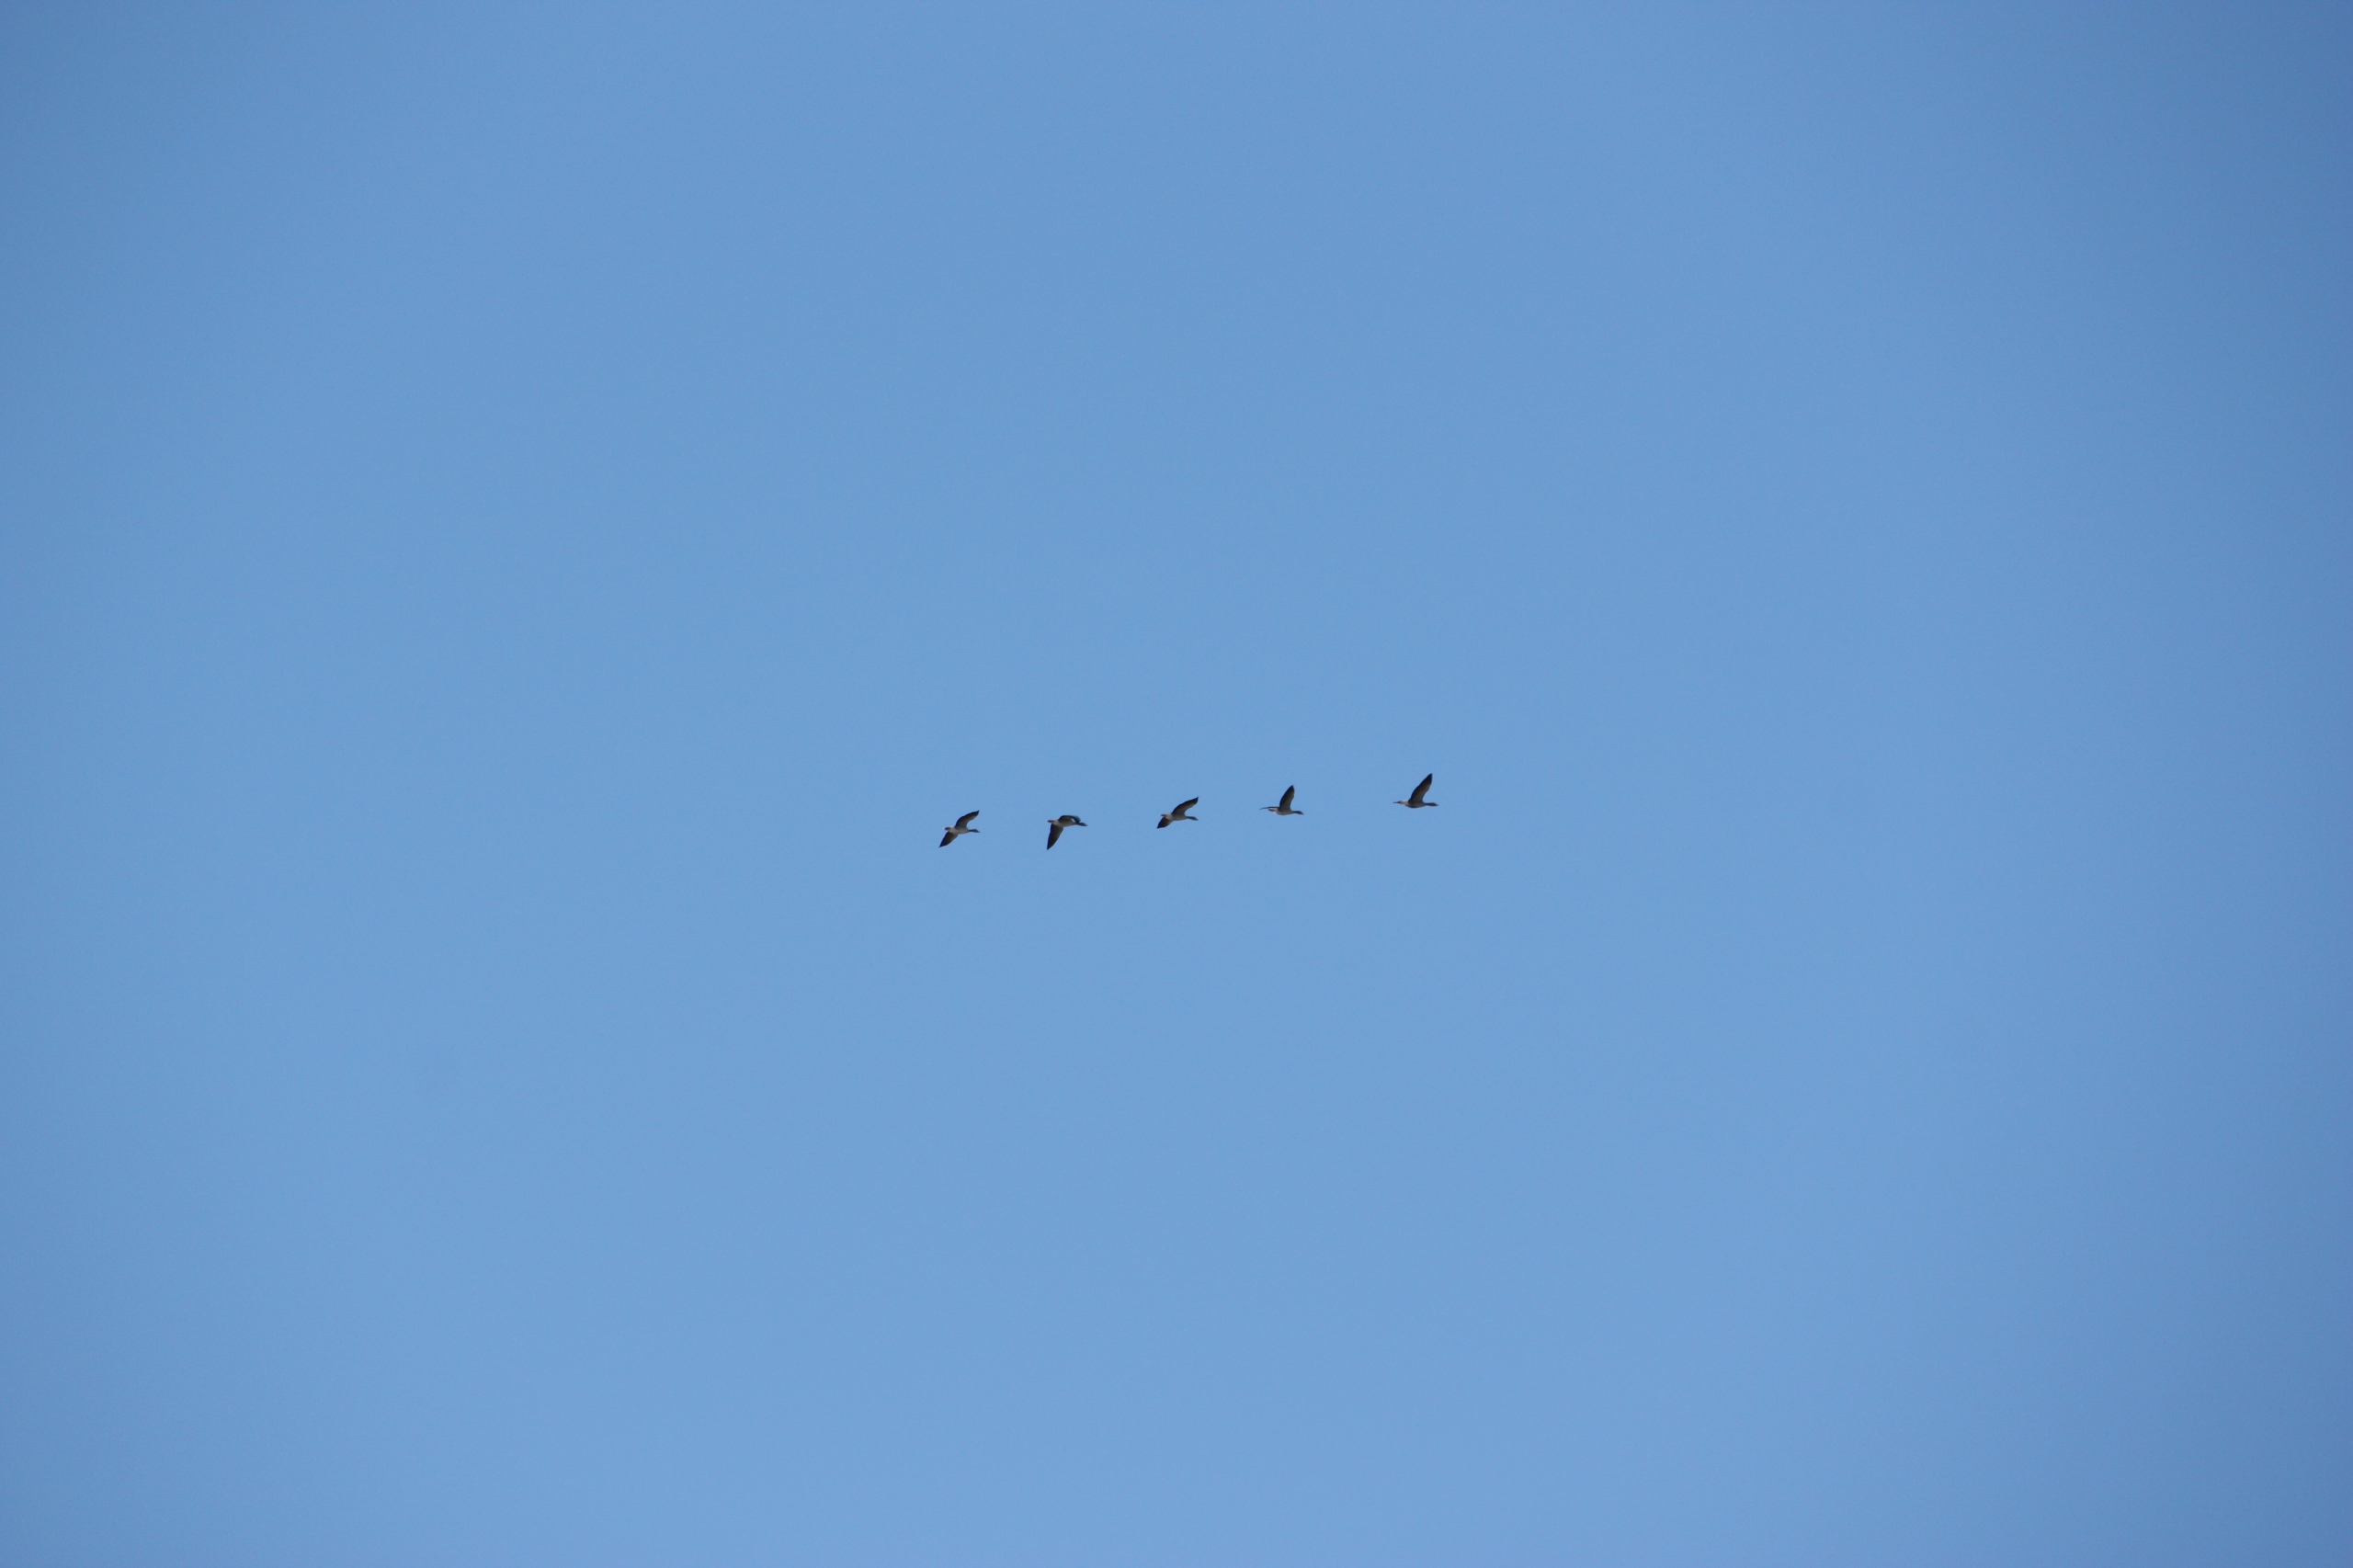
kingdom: Animalia
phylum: Chordata
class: Aves
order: Anseriformes
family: Anatidae
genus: Anser
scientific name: Anser anser
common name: Grågås
